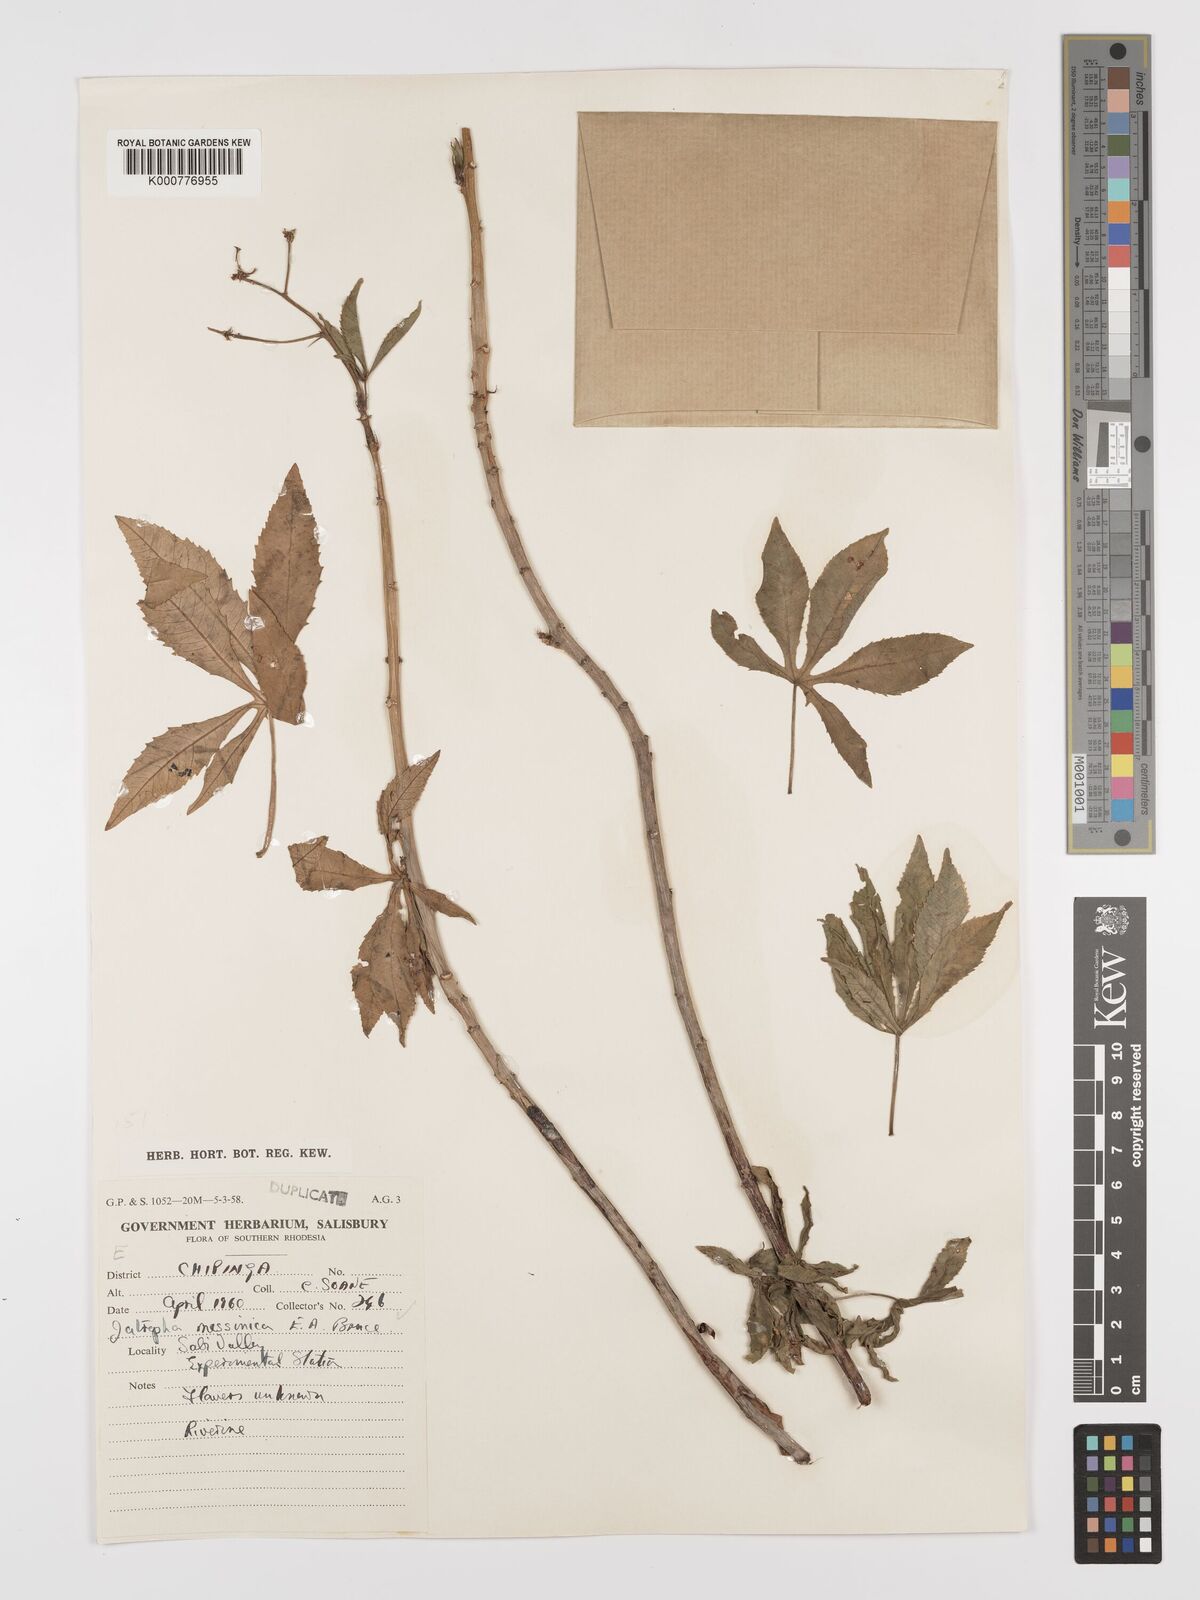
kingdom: Plantae
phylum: Tracheophyta
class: Magnoliopsida
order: Malpighiales
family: Euphorbiaceae
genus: Jatropha
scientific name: Jatropha spicata
